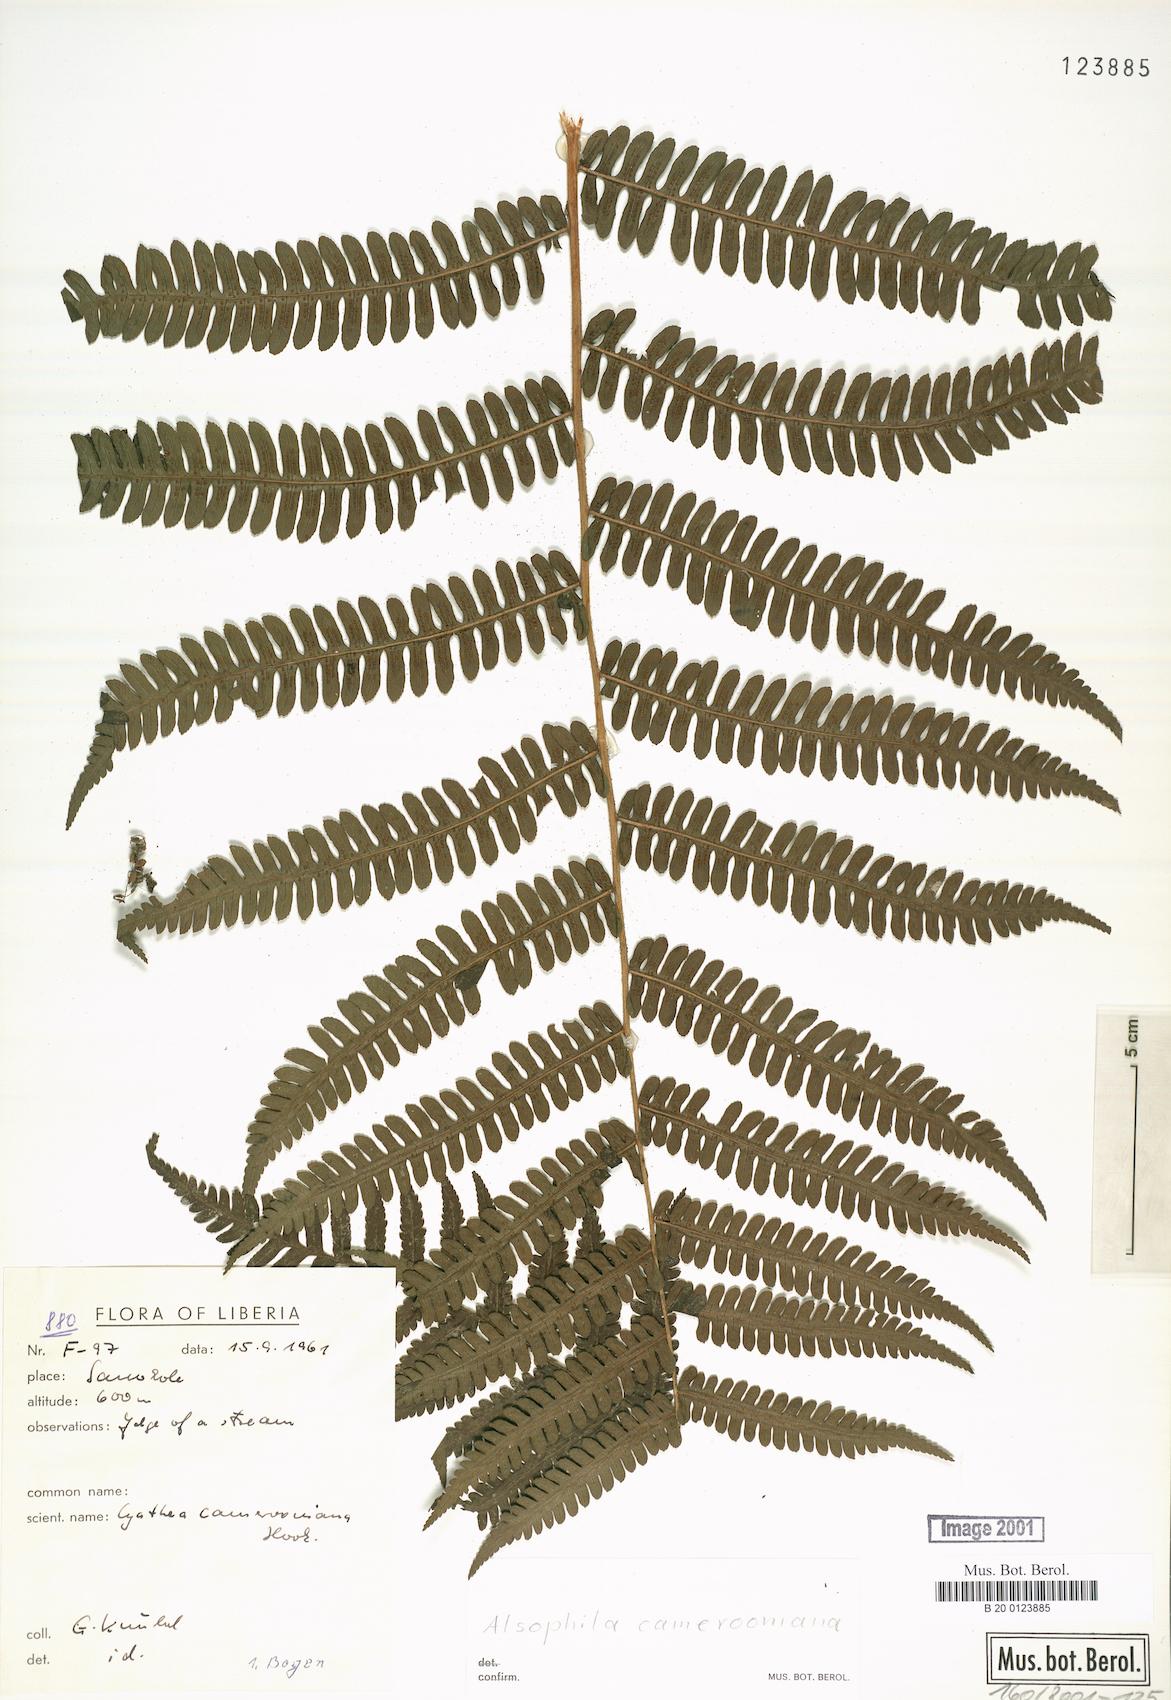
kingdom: Plantae
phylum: Tracheophyta
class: Polypodiopsida
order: Cyatheales
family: Cyatheaceae
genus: Alsophila
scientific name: Alsophila camerooniana
